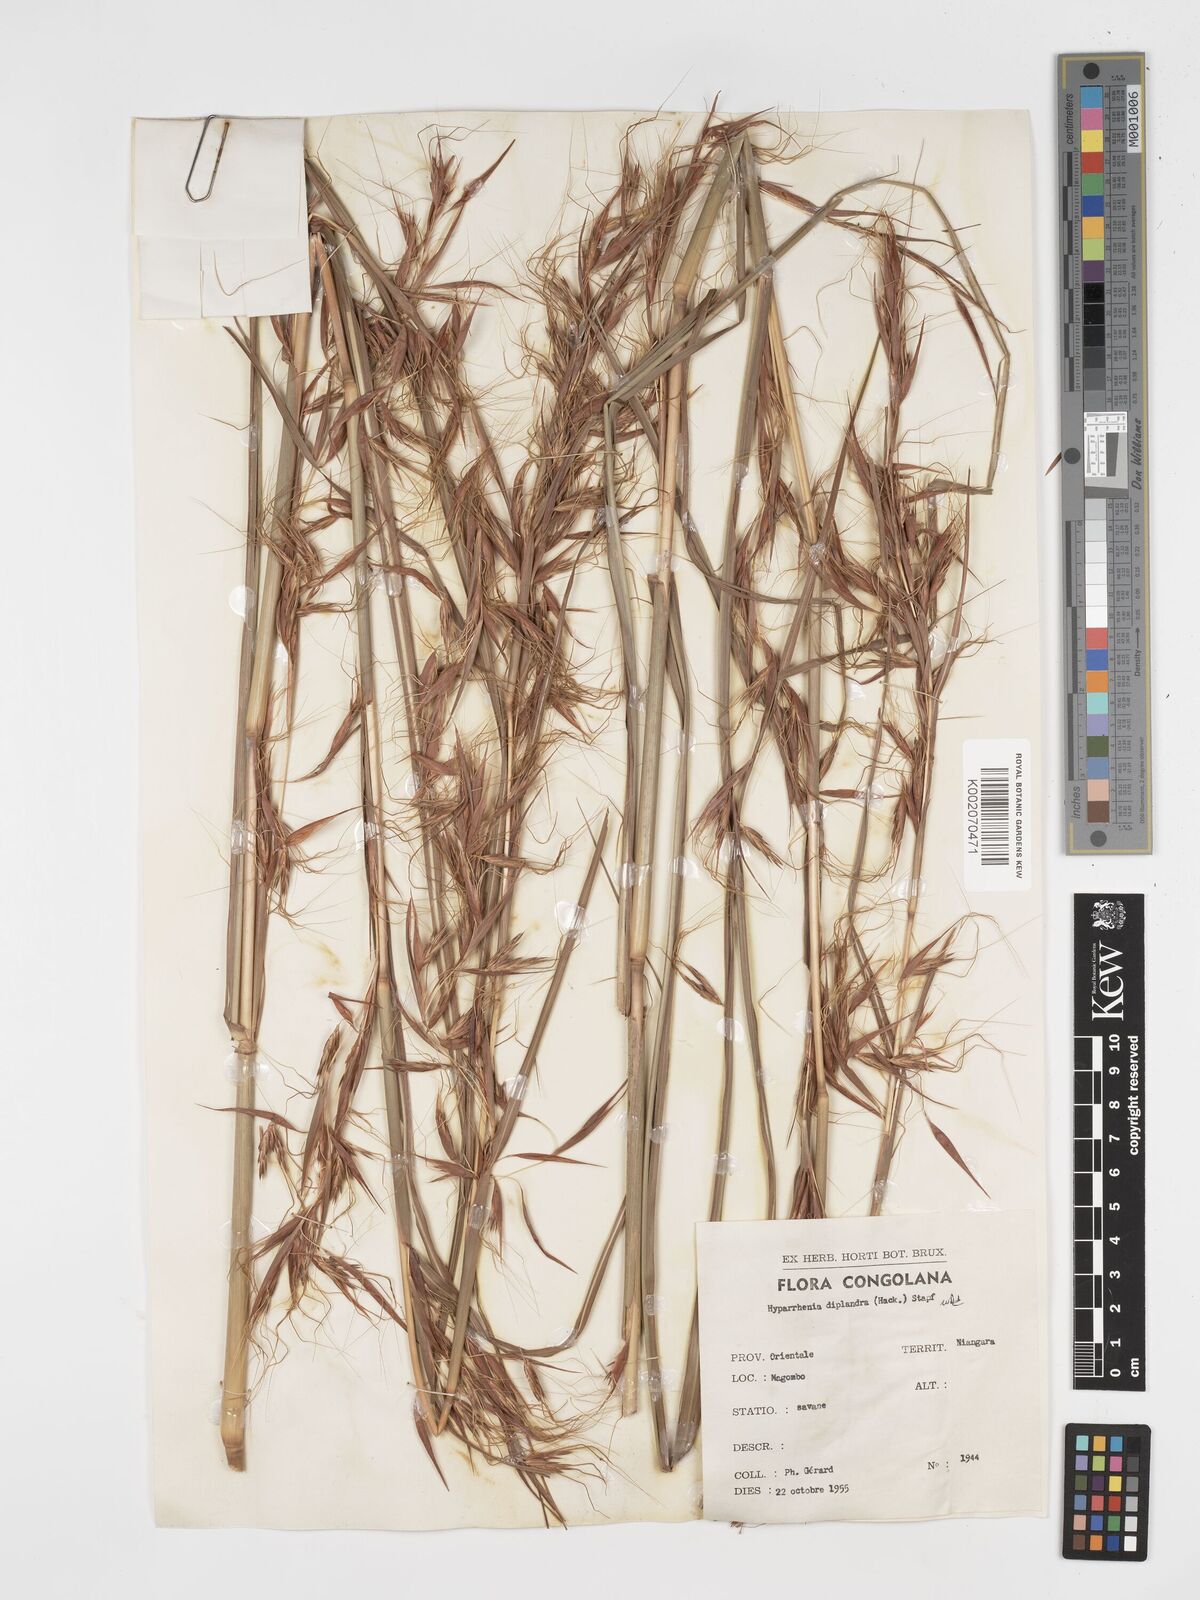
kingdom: Plantae
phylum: Tracheophyta
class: Liliopsida
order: Poales
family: Poaceae
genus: Hyparrhenia
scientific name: Hyparrhenia diplandra
